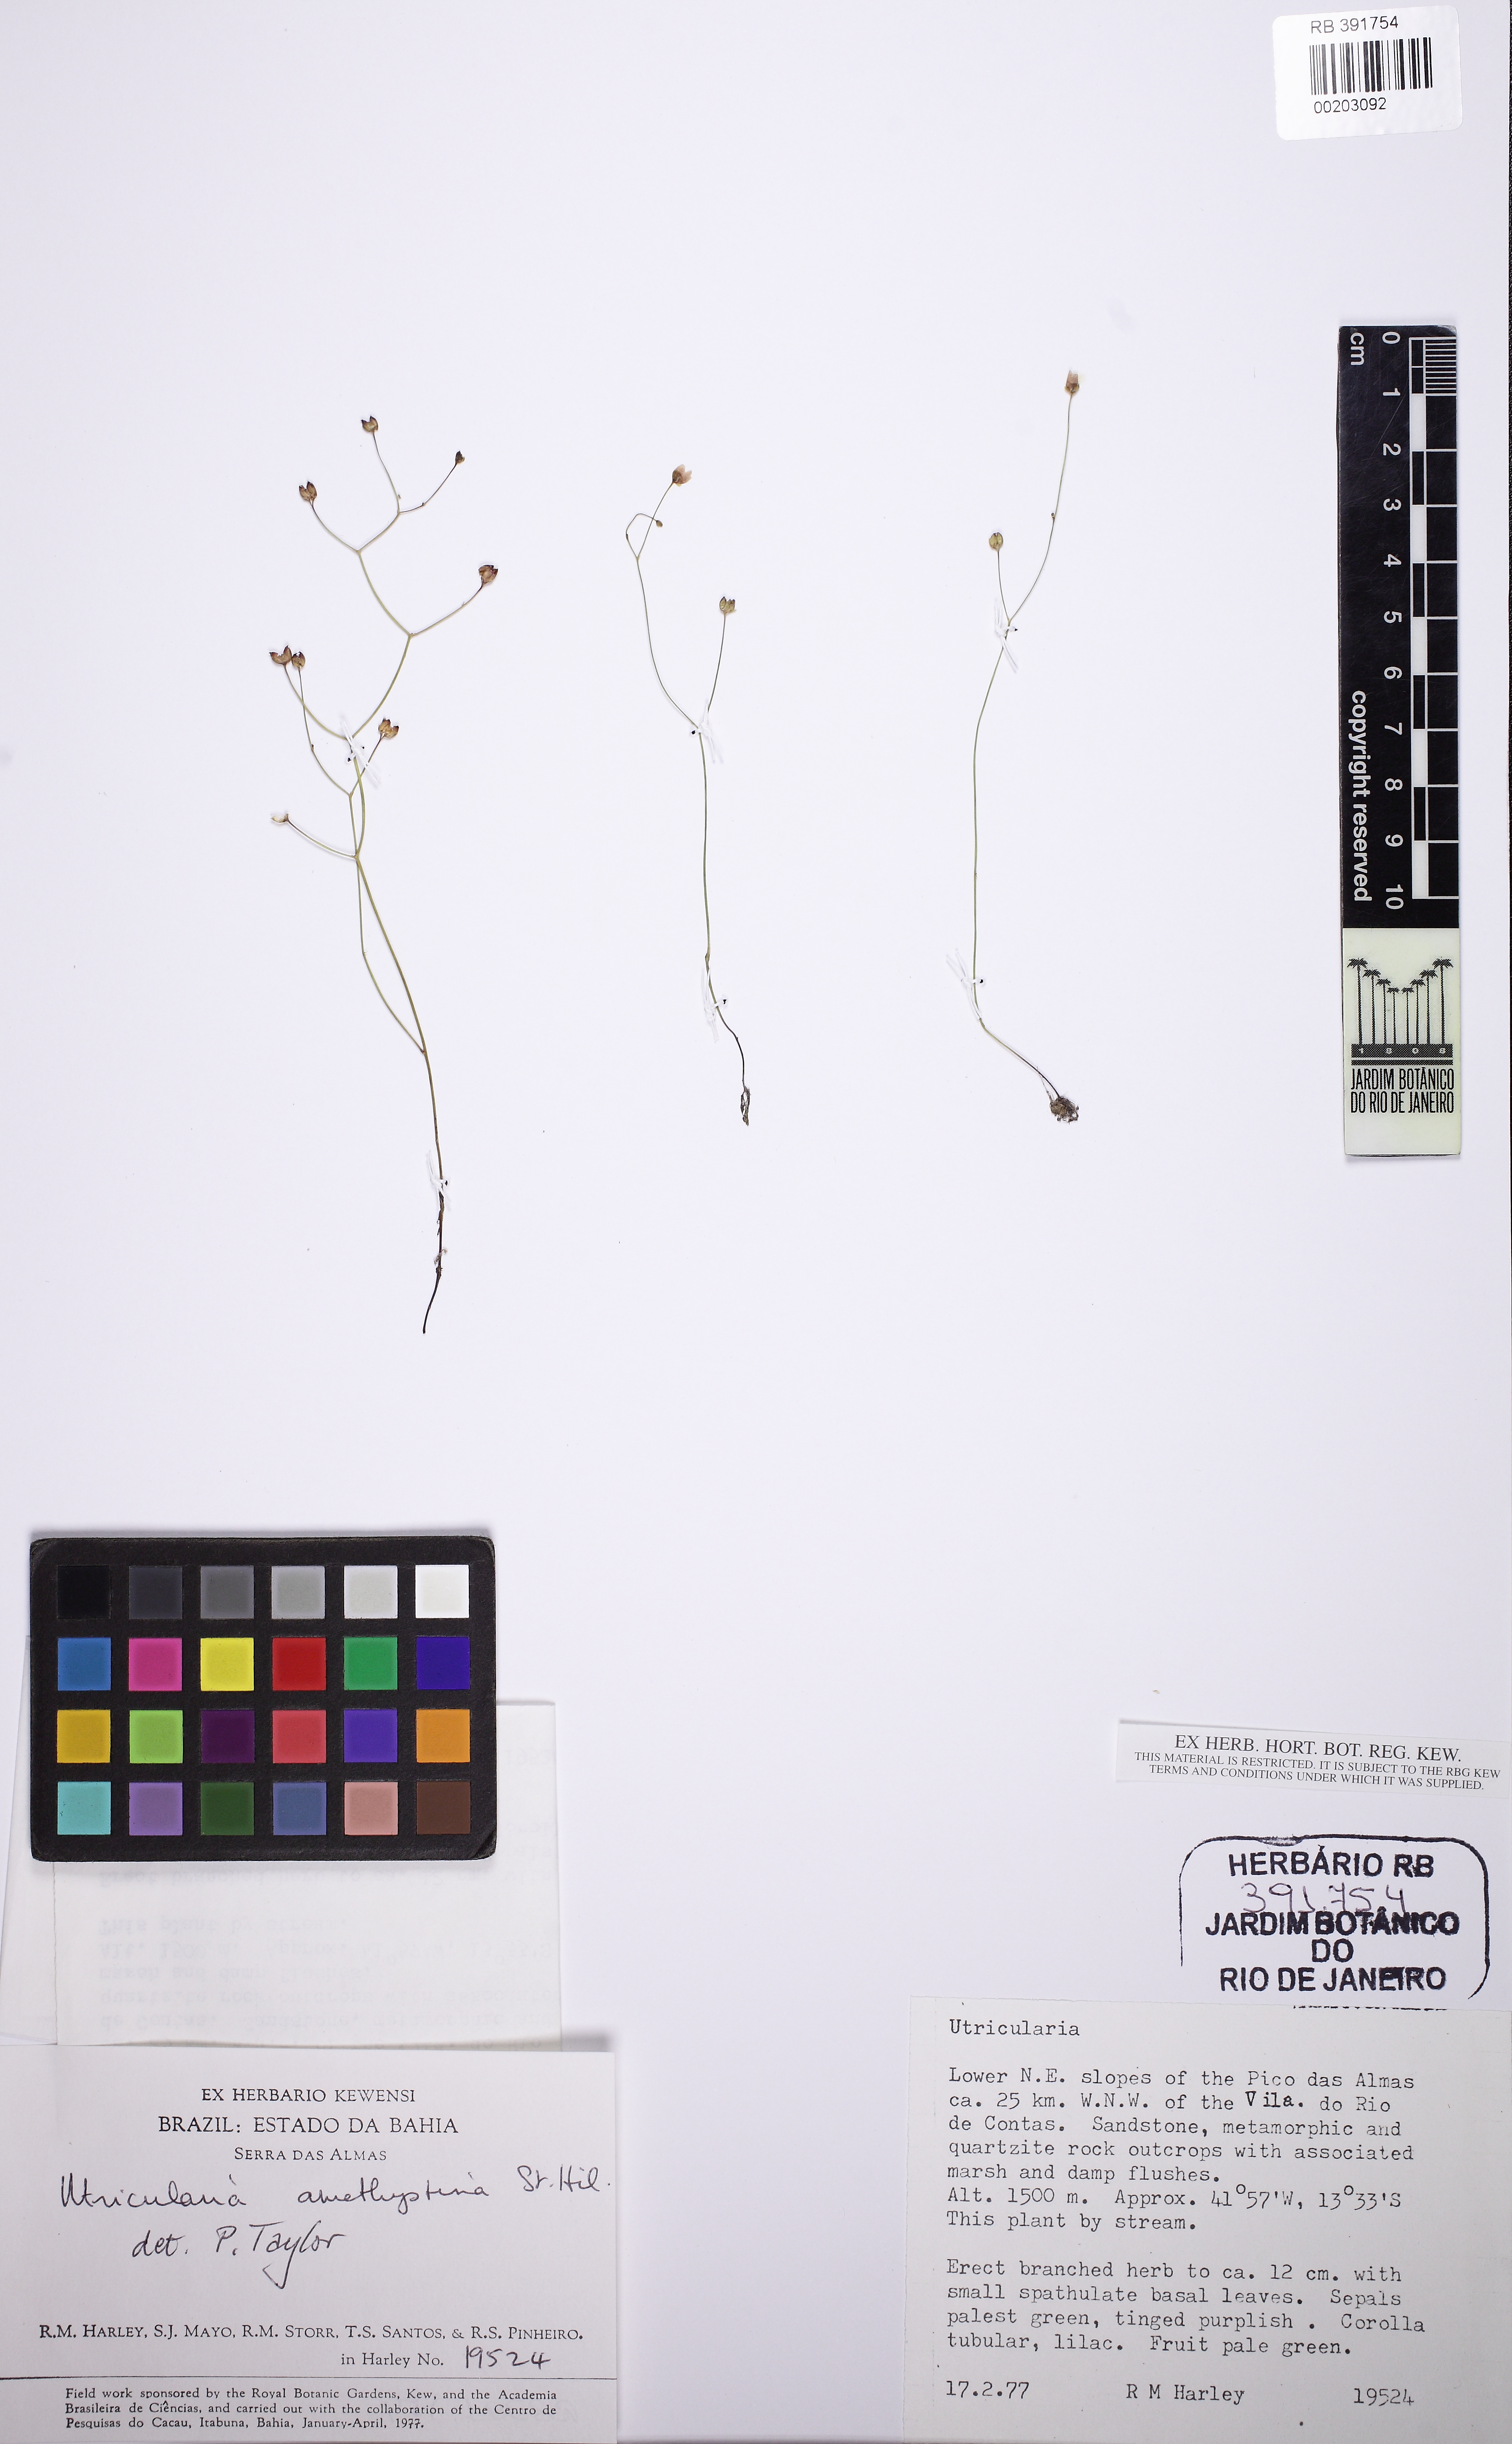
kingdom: Plantae
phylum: Tracheophyta
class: Magnoliopsida
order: Lamiales
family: Lentibulariaceae
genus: Utricularia
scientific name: Utricularia
